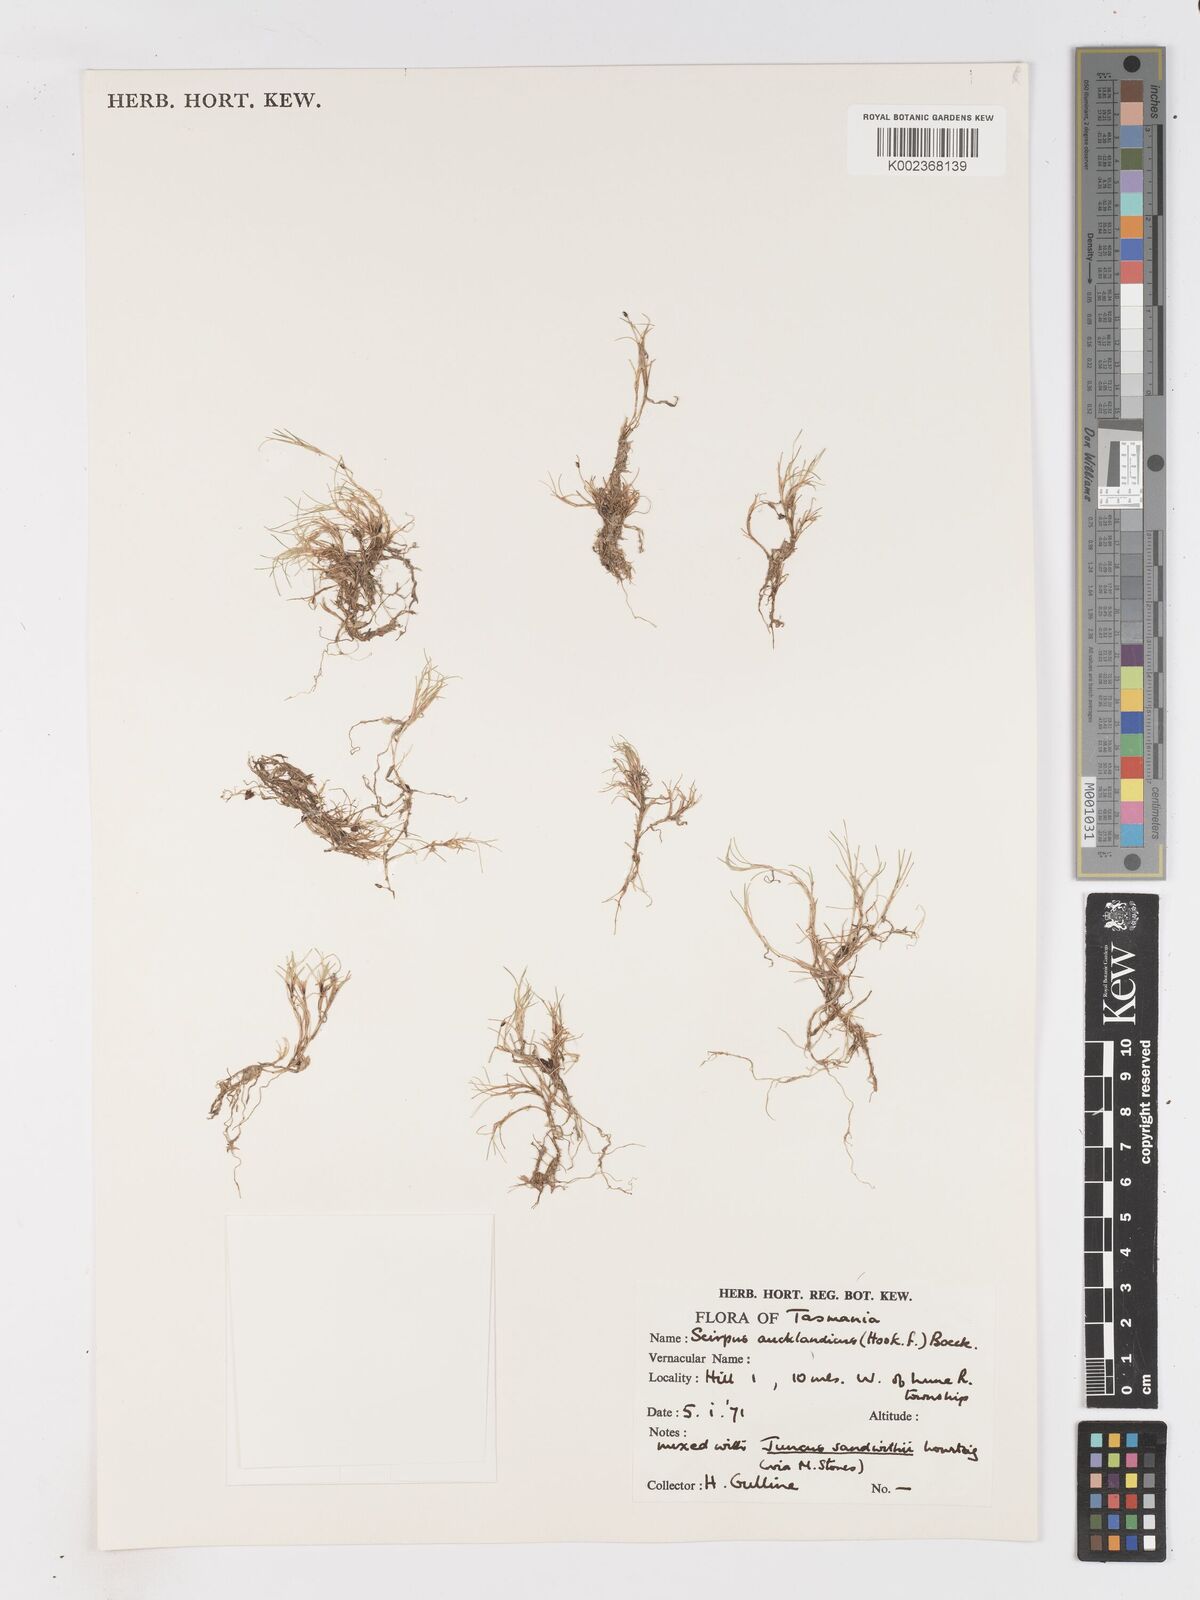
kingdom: Plantae
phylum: Tracheophyta
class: Liliopsida
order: Poales
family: Cyperaceae
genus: Isolepis
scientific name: Isolepis aucklandica
